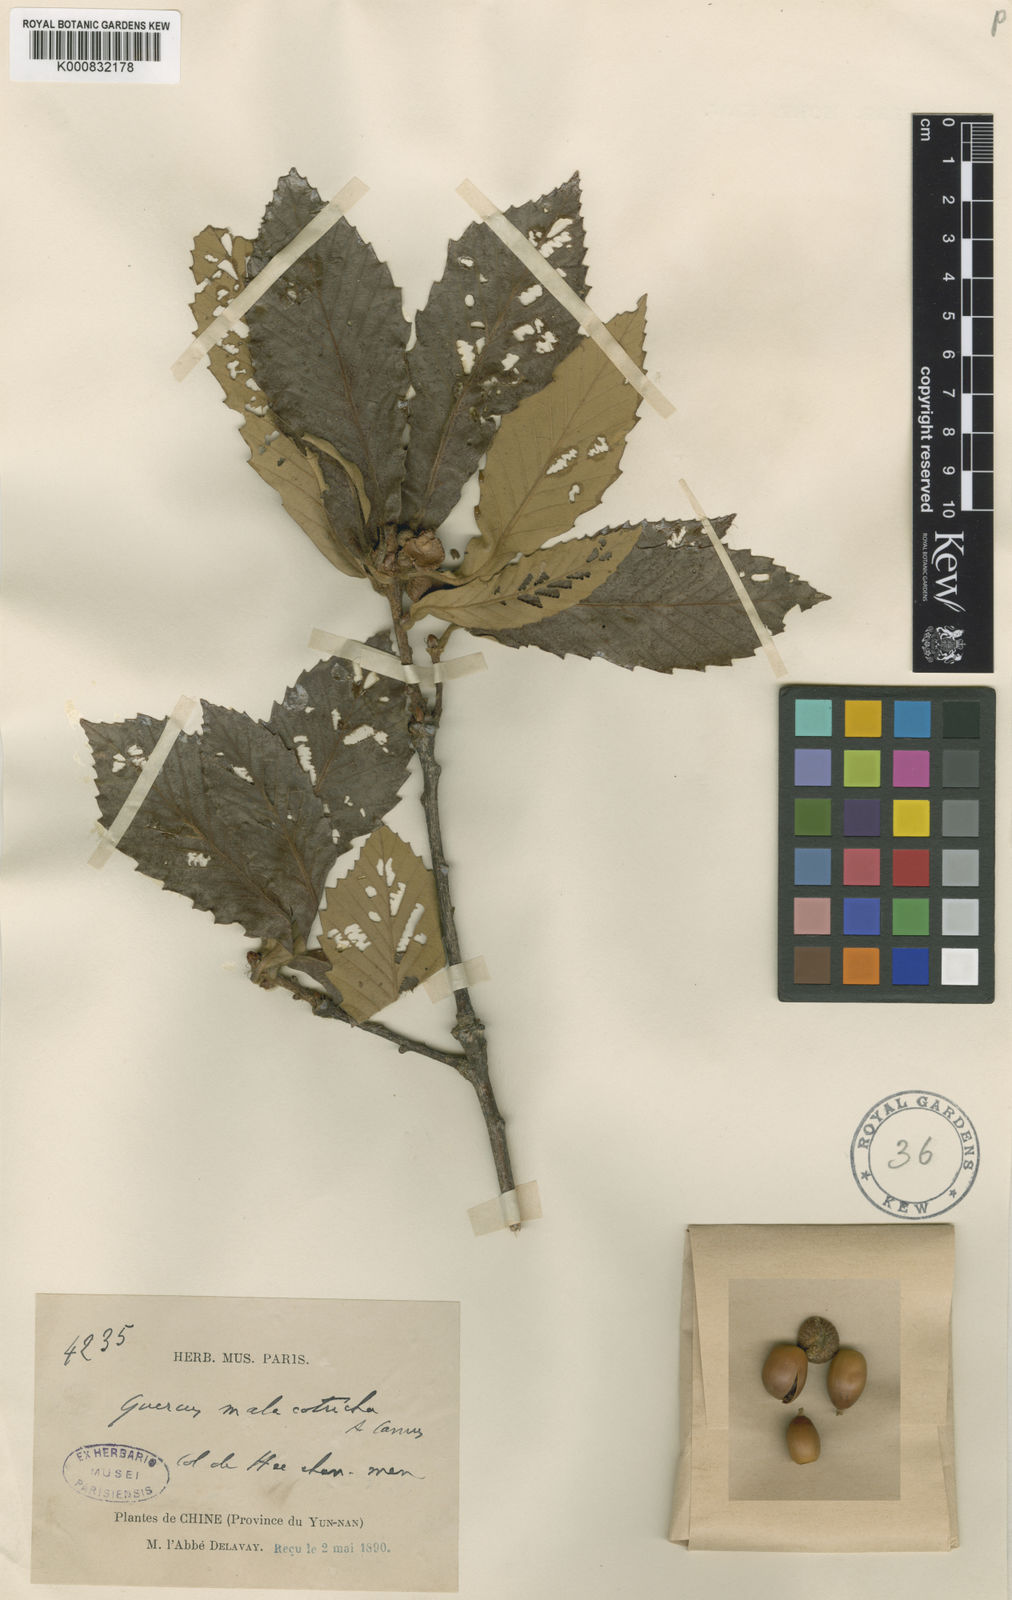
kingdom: Plantae
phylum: Tracheophyta
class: Magnoliopsida
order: Fagales
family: Fagaceae
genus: Quercus
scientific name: Quercus dentata
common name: Daimyo oak
